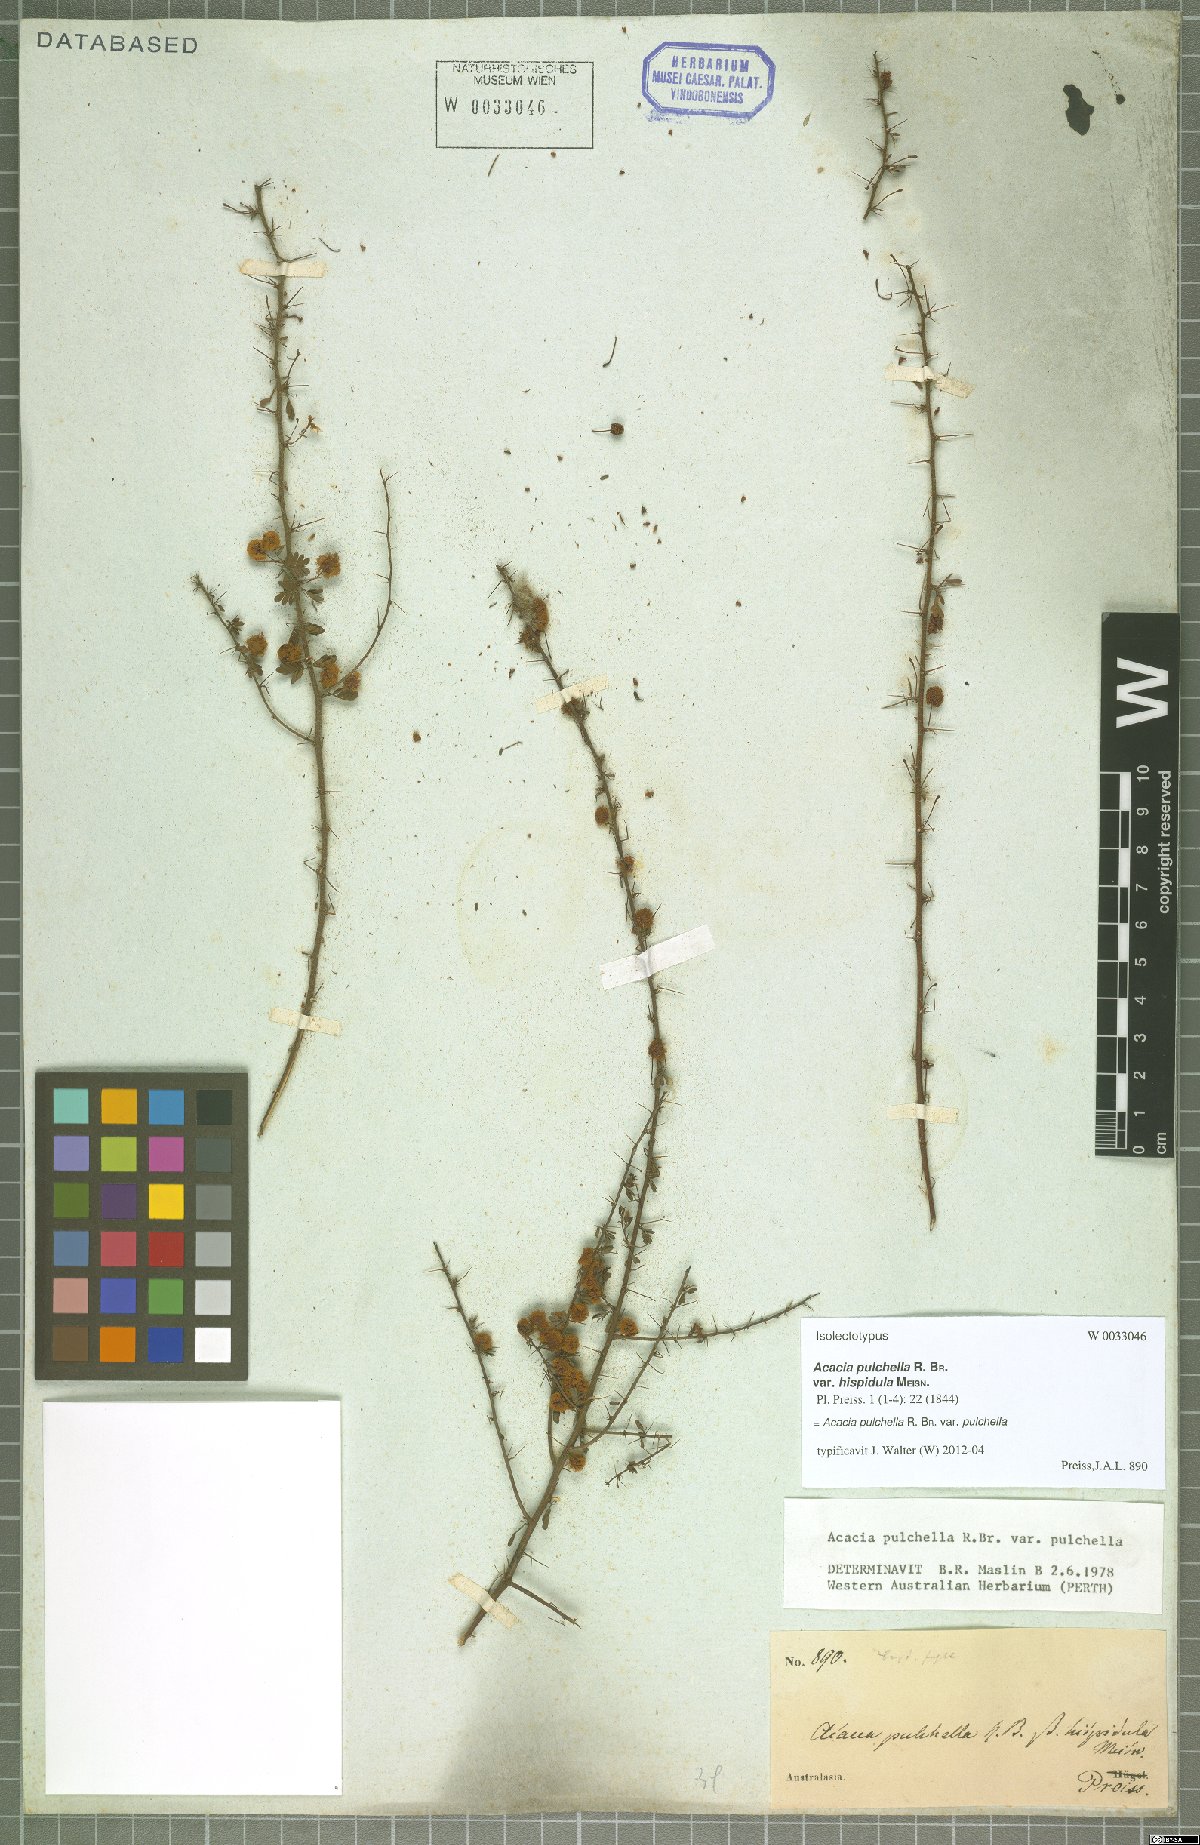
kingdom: Plantae
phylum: Tracheophyta
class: Magnoliopsida
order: Fabales
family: Fabaceae
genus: Acacia
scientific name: Acacia pulchella
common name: Prickly moses
